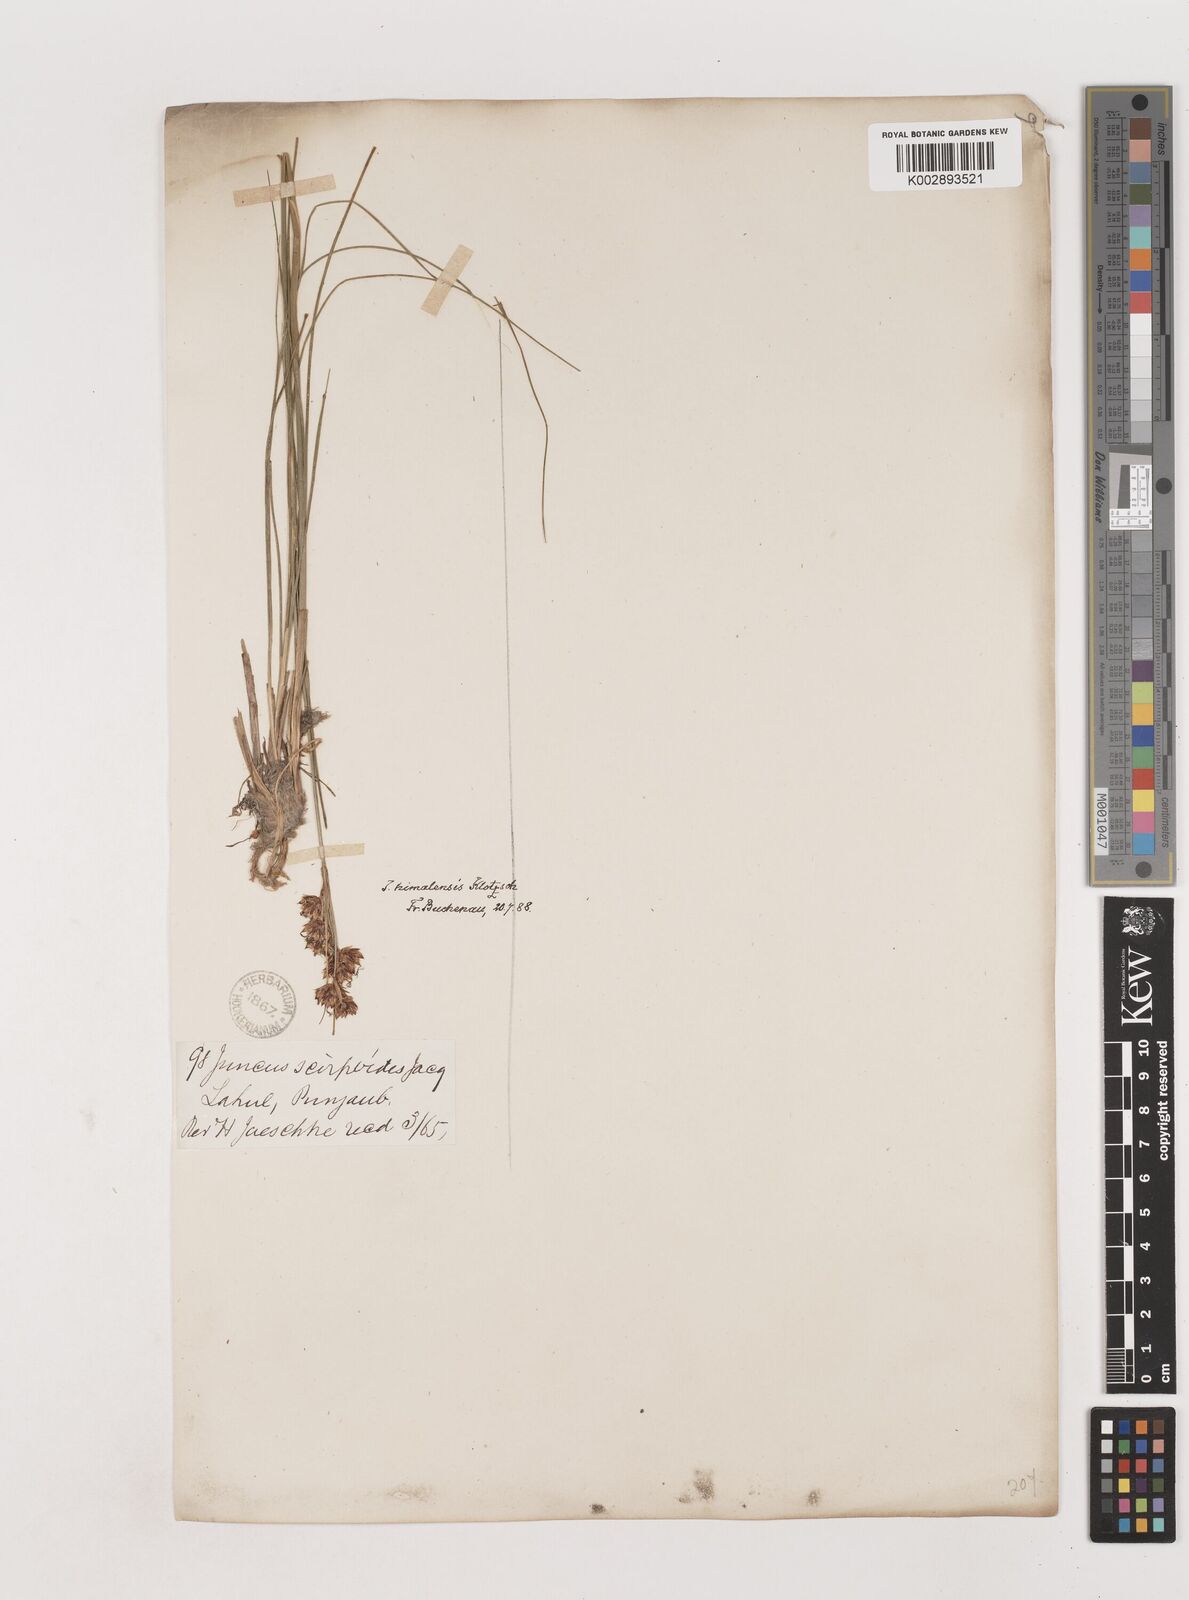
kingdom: Plantae
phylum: Tracheophyta
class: Liliopsida
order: Poales
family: Juncaceae
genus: Juncus
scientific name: Juncus himalensis
